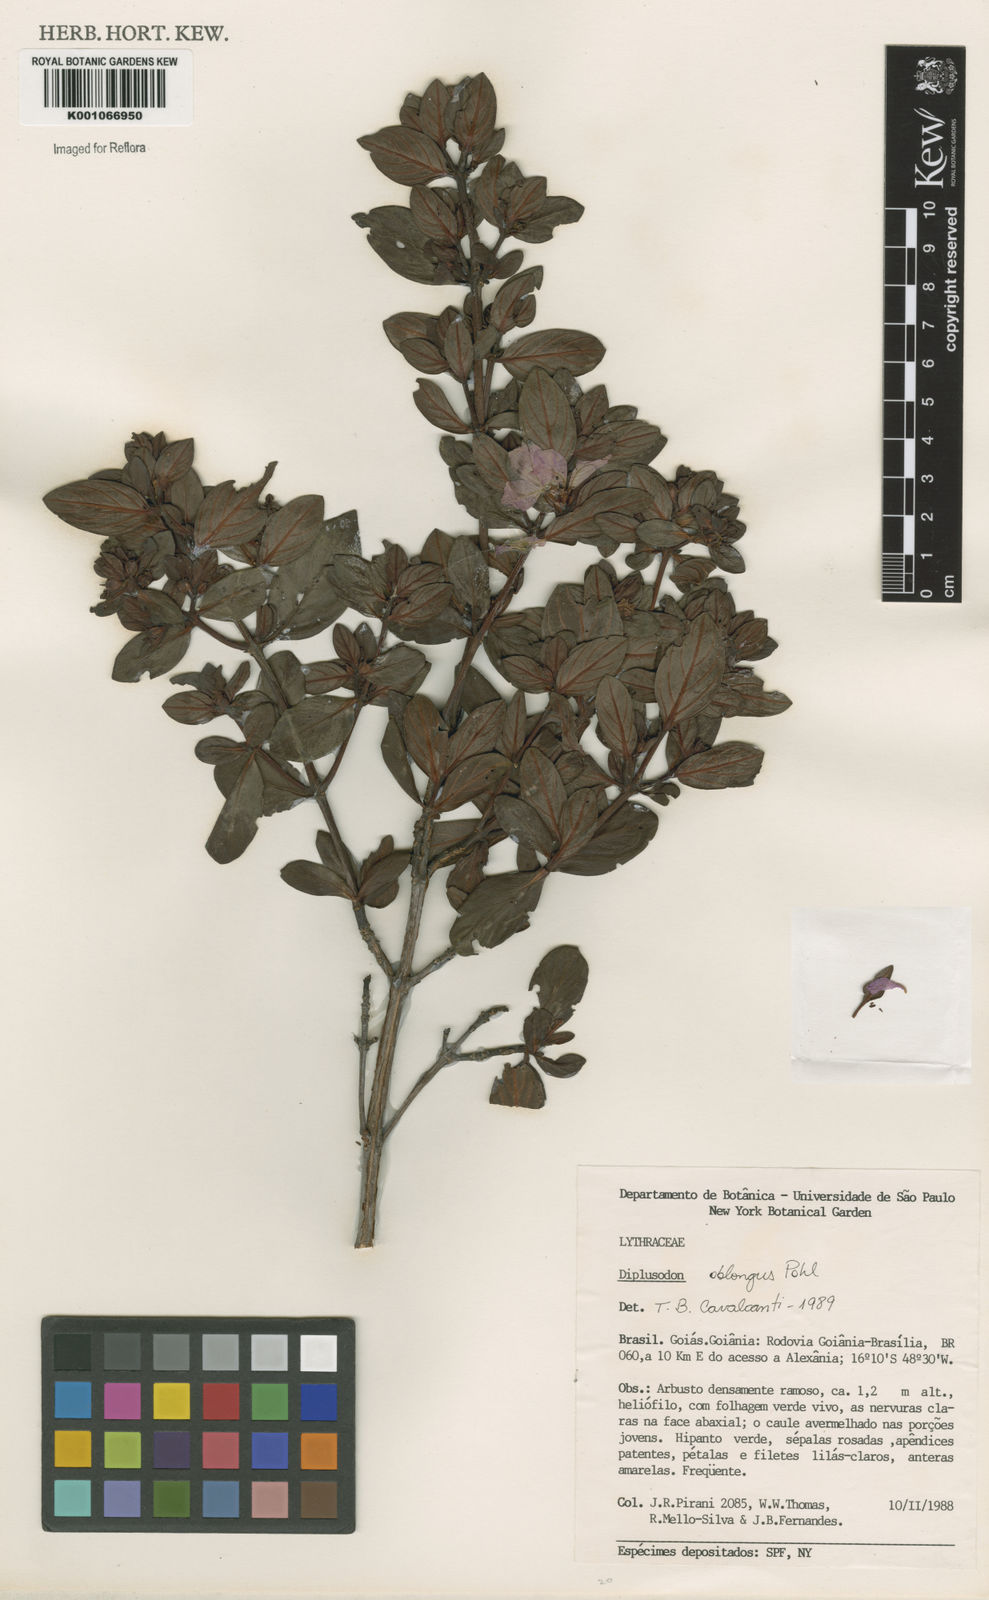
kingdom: Plantae
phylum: Tracheophyta
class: Magnoliopsida
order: Myrtales
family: Lythraceae
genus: Diplusodon
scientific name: Diplusodon oblongus
